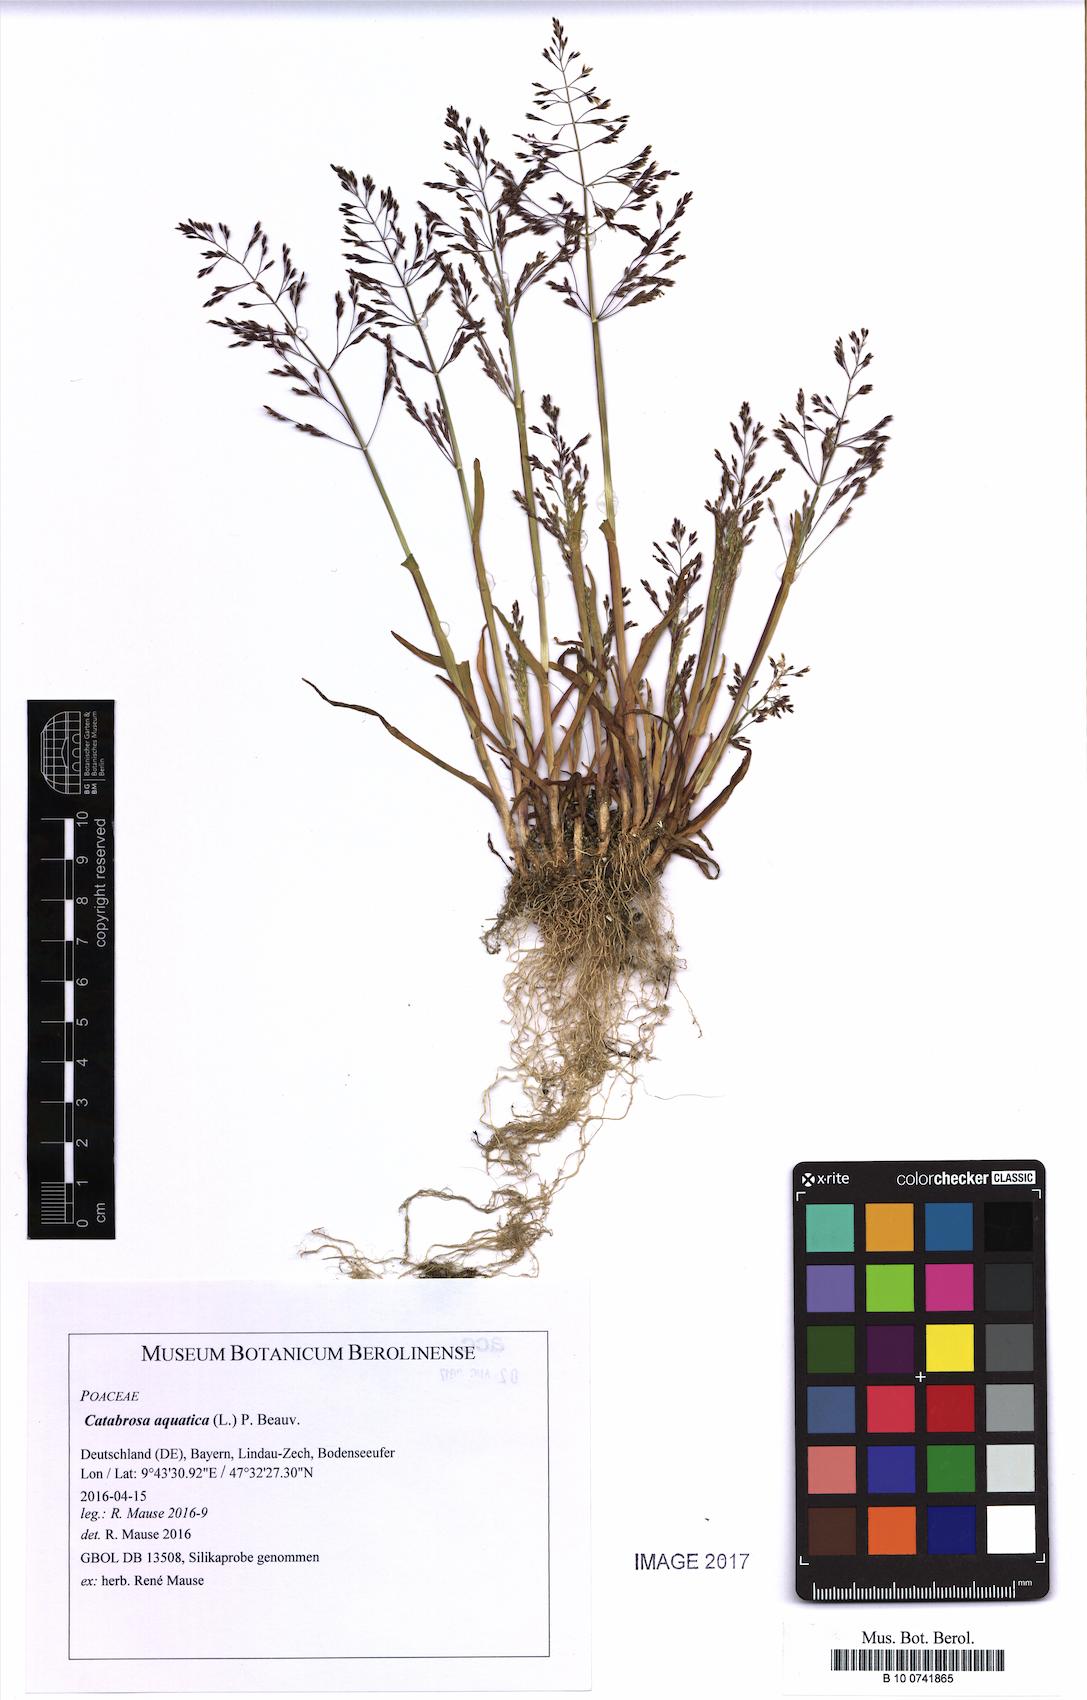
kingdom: Plantae
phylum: Tracheophyta
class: Liliopsida
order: Poales
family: Poaceae
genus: Catabrosa
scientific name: Catabrosa aquatica
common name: Whorl-grass
